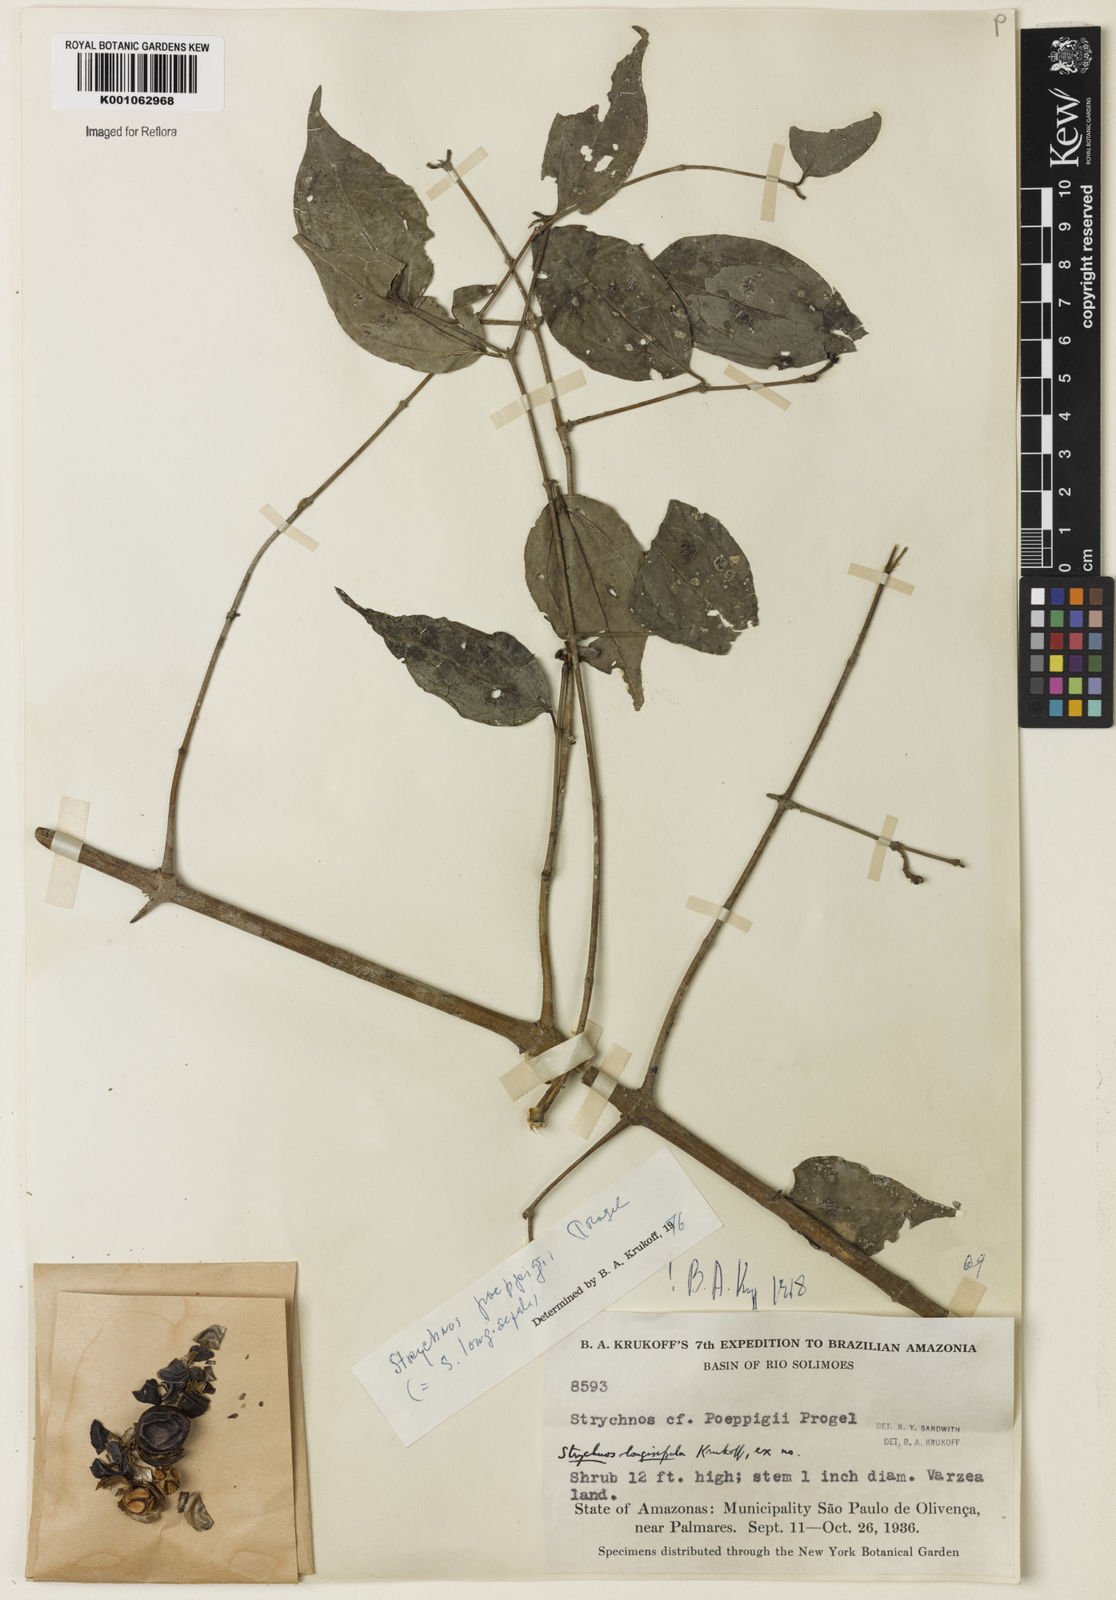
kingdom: Plantae
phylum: Tracheophyta
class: Magnoliopsida
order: Gentianales
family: Loganiaceae
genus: Strychnos
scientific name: Strychnos poeppigii
